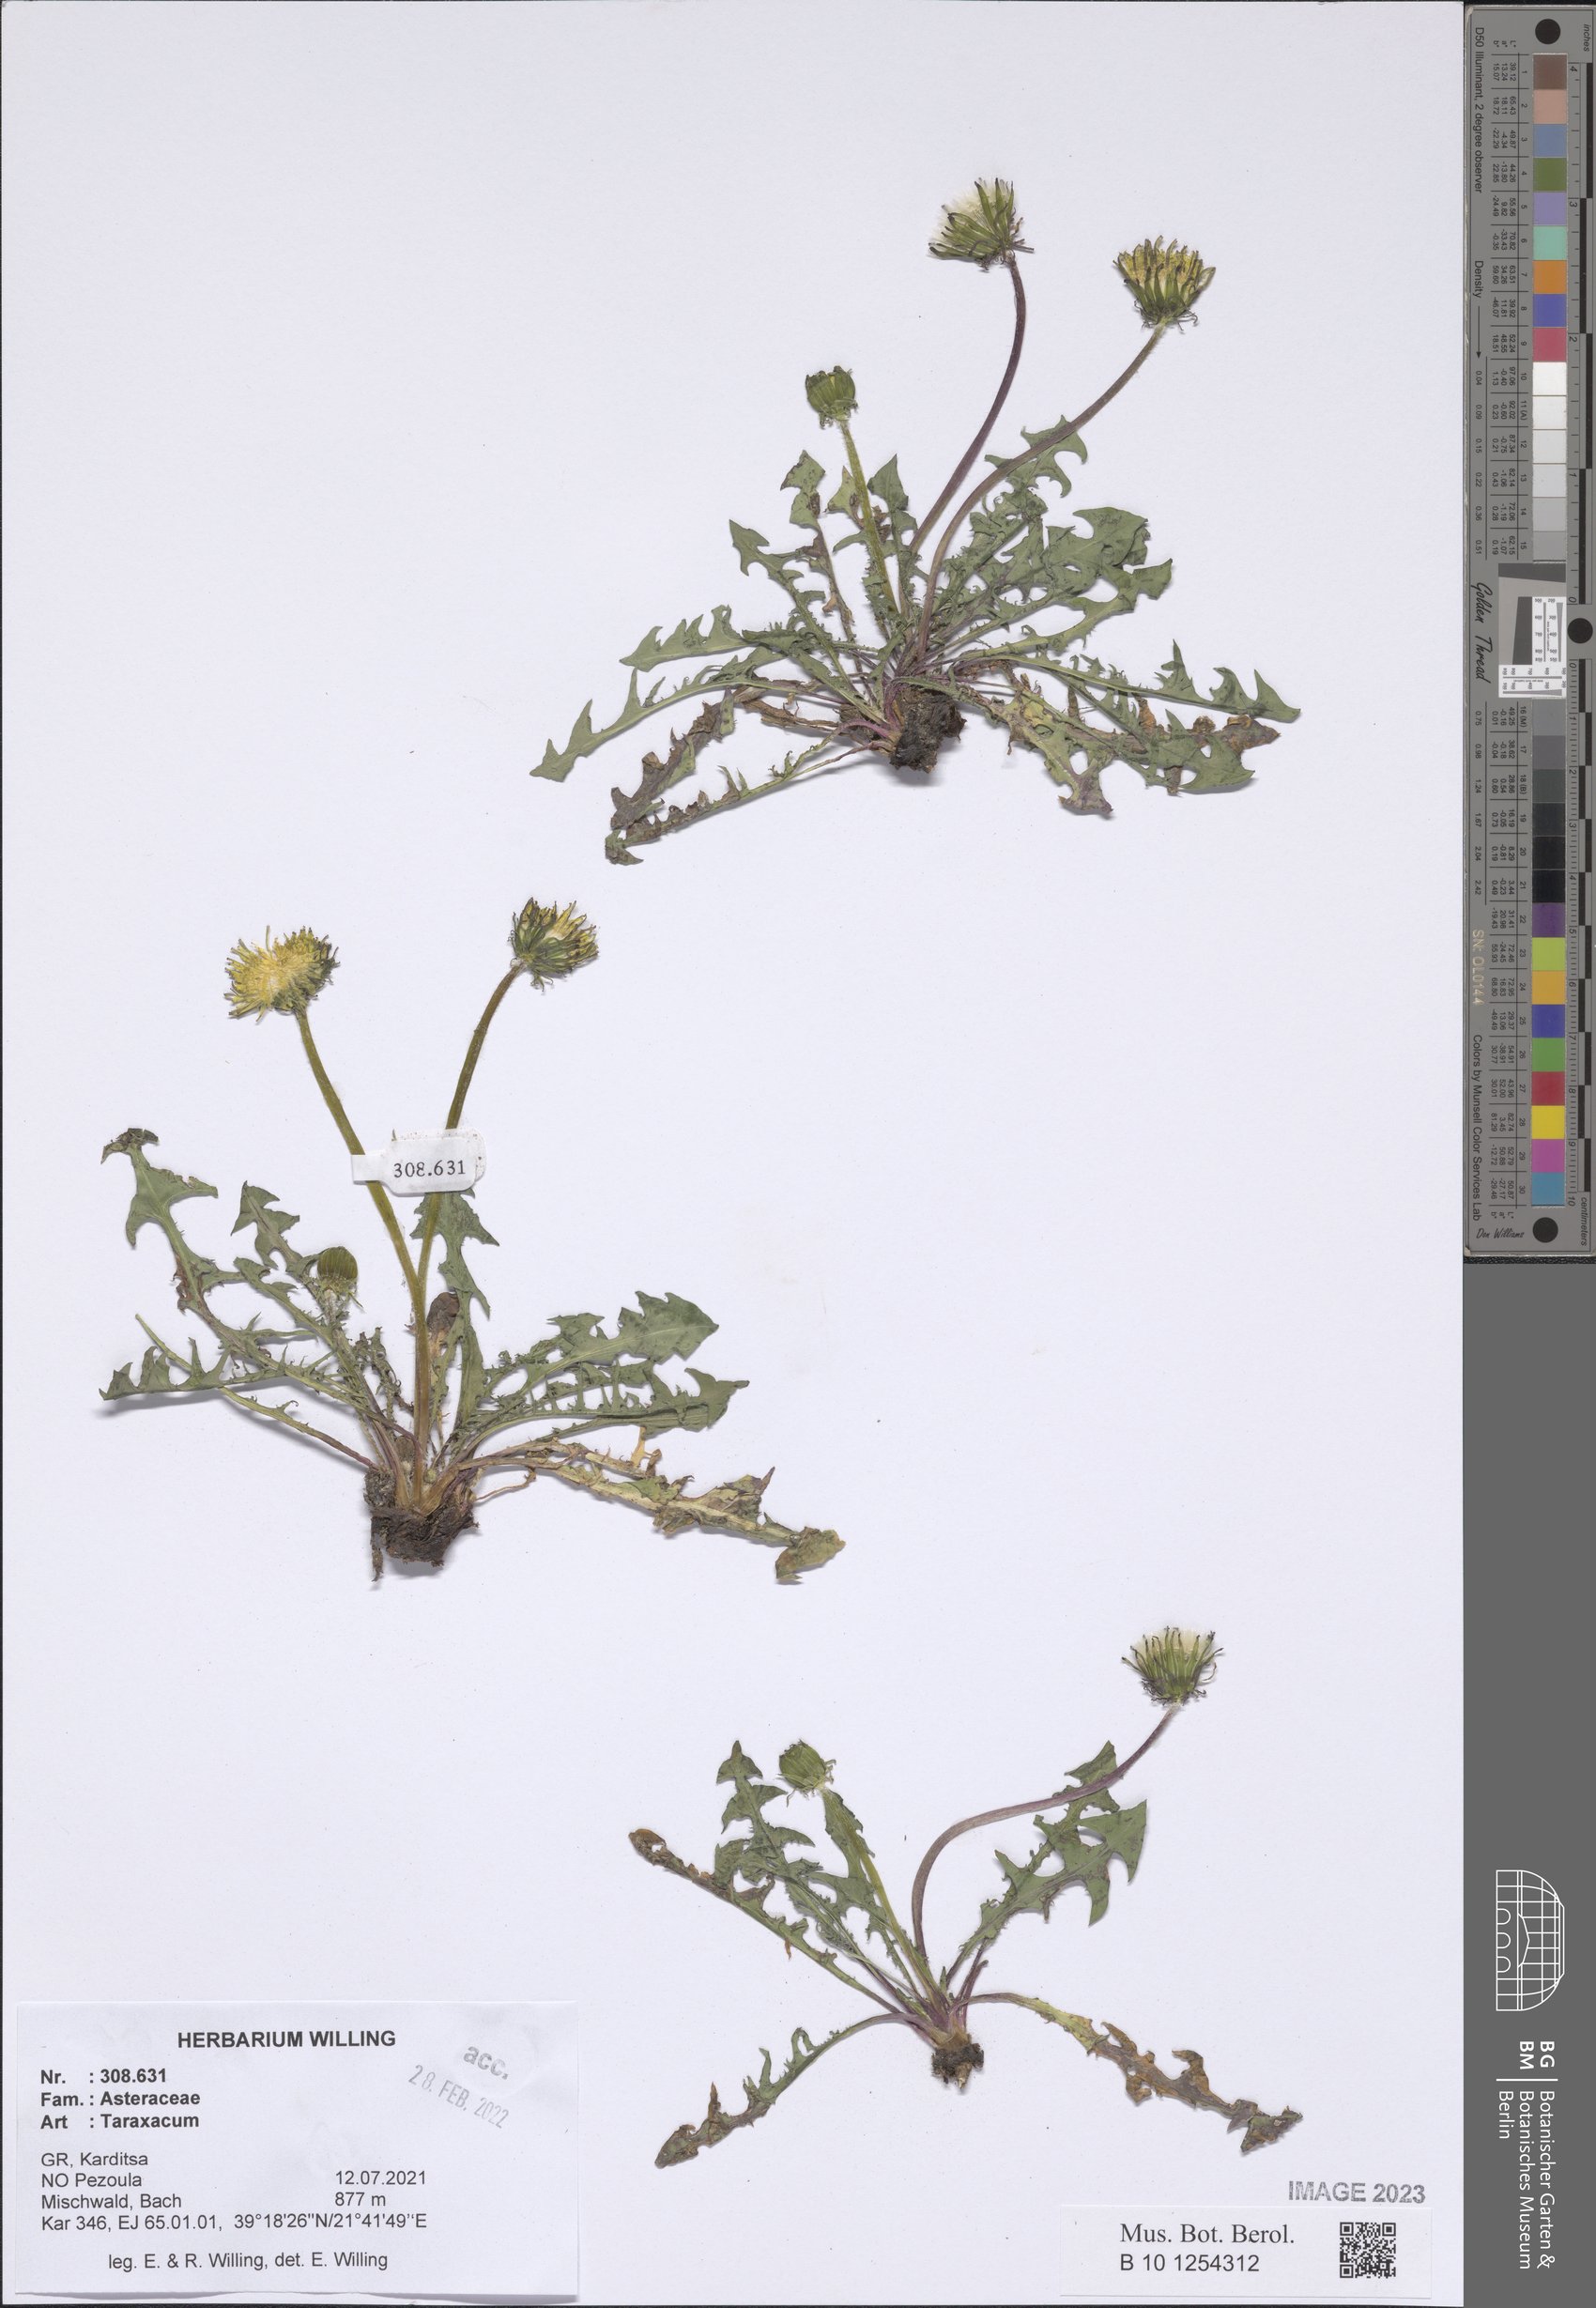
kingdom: Plantae
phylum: Tracheophyta
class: Magnoliopsida
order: Asterales
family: Asteraceae
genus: Taraxacum
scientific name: Taraxacum
